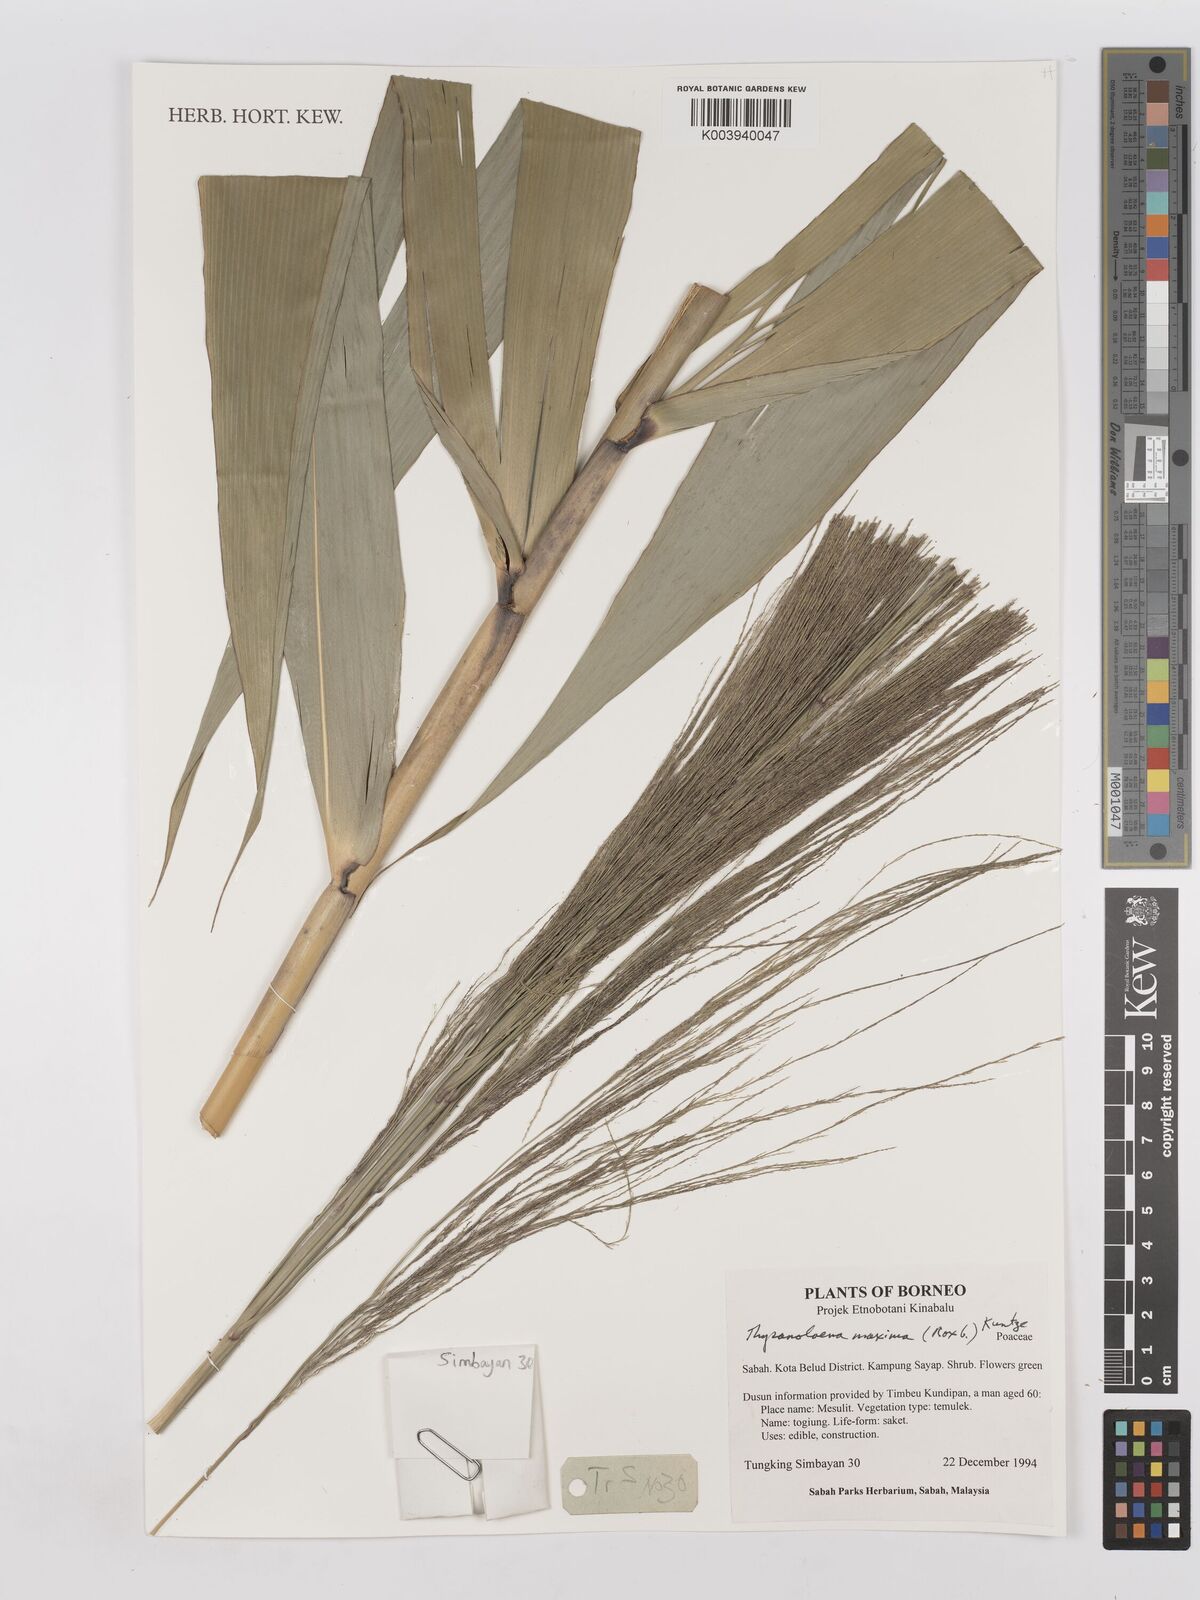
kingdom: Plantae
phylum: Tracheophyta
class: Liliopsida
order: Poales
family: Poaceae
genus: Thysanolaena
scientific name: Thysanolaena latifolia
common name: Tiger grass
